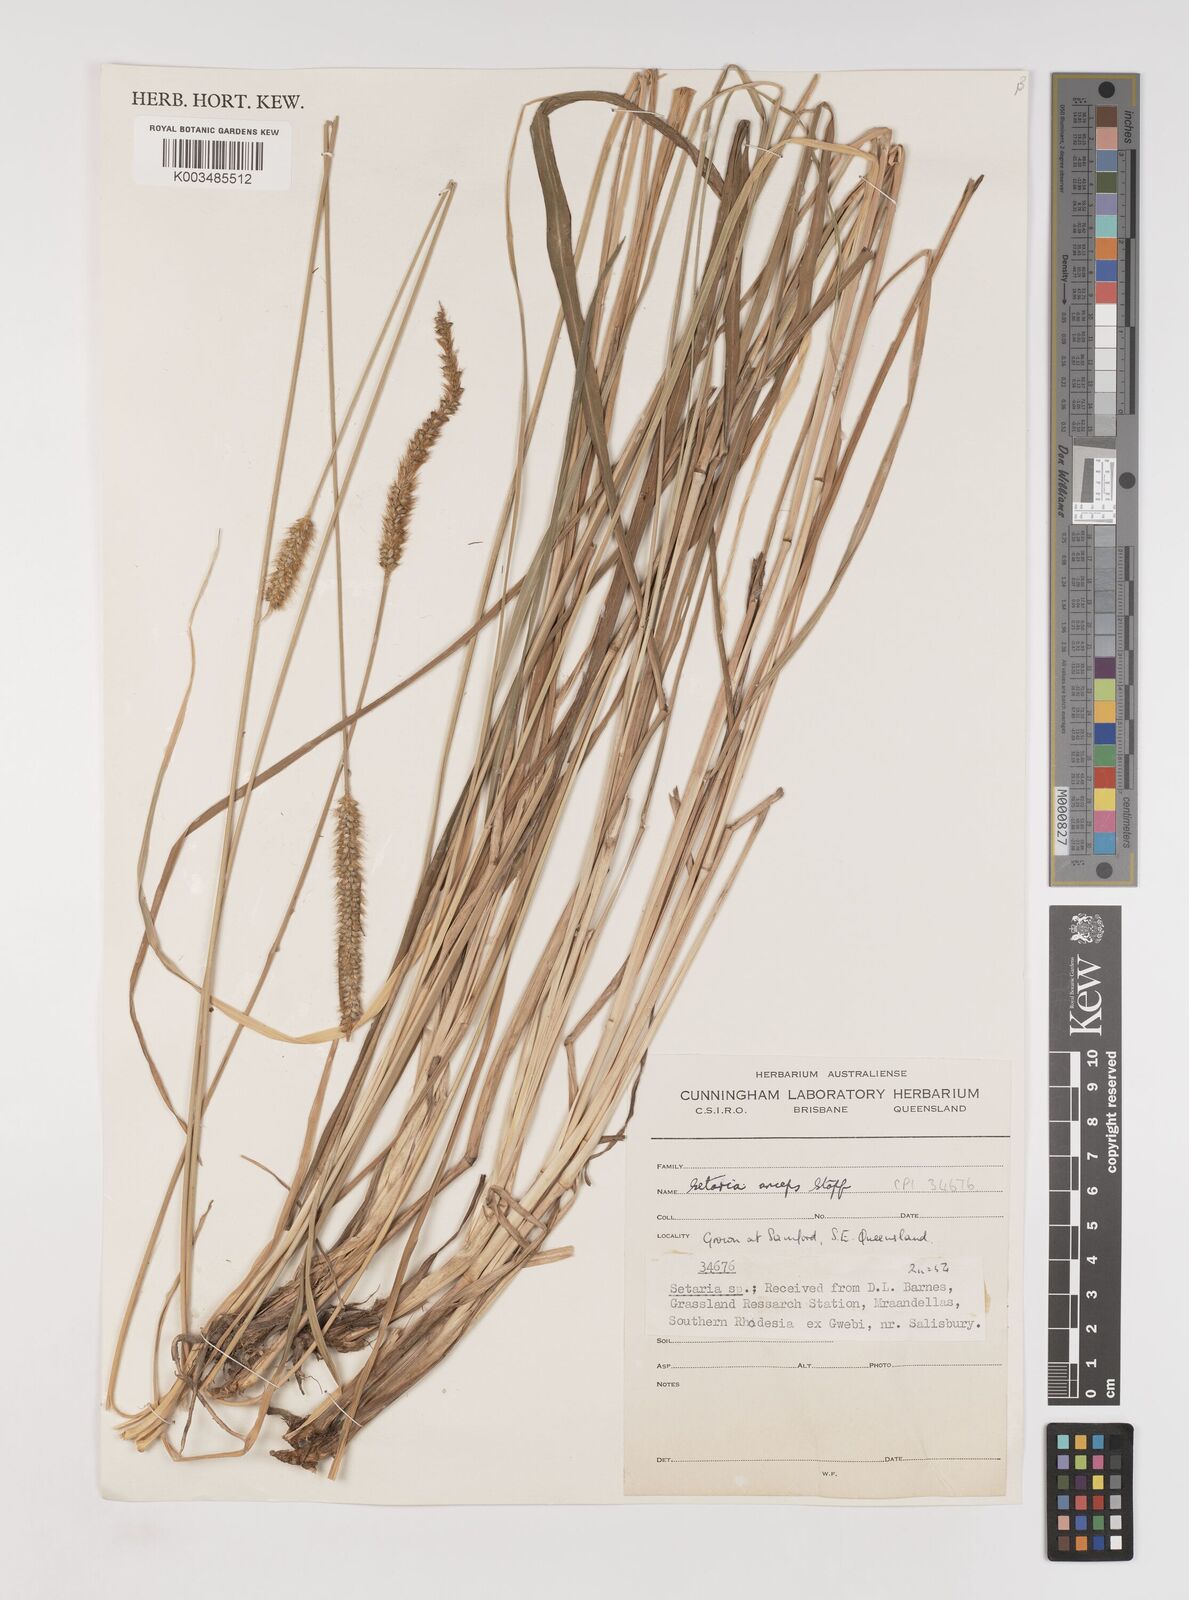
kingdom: Plantae
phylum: Tracheophyta
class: Liliopsida
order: Poales
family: Poaceae
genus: Setaria
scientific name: Setaria sphacelata
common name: African bristlegrass
